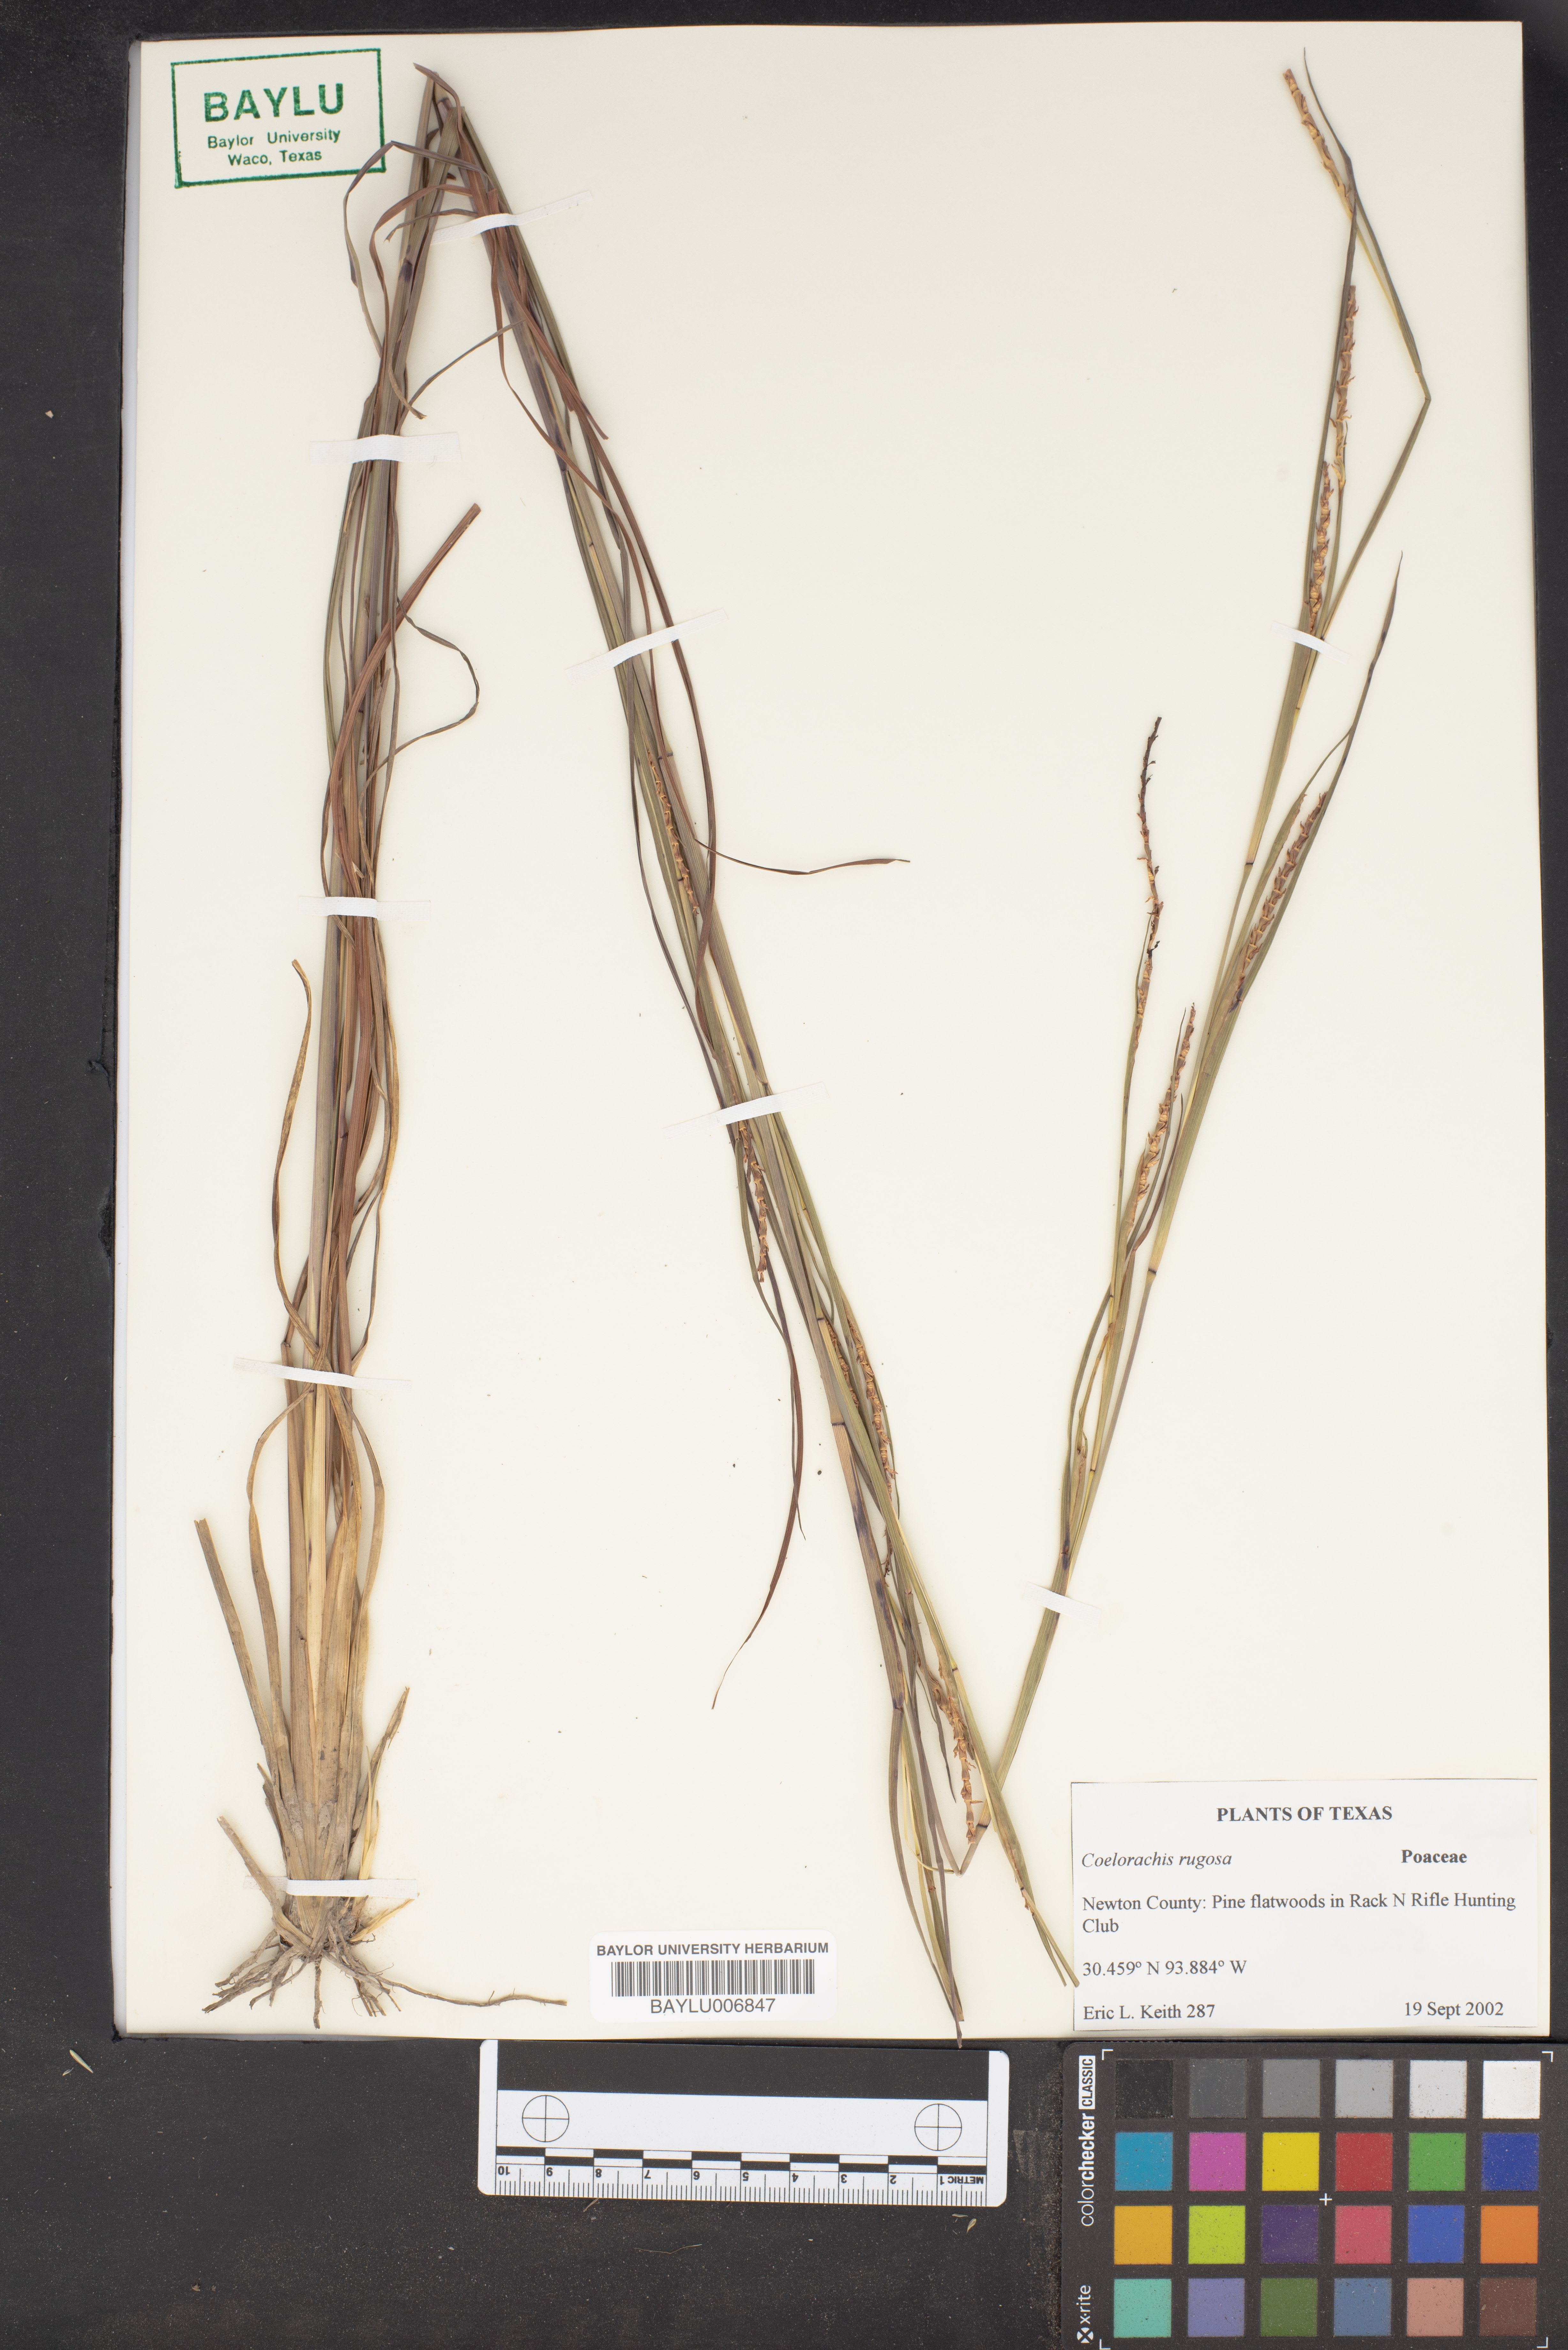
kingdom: Plantae
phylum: Tracheophyta
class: Liliopsida
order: Poales
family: Poaceae
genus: Rottboellia
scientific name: Rottboellia rugosa
